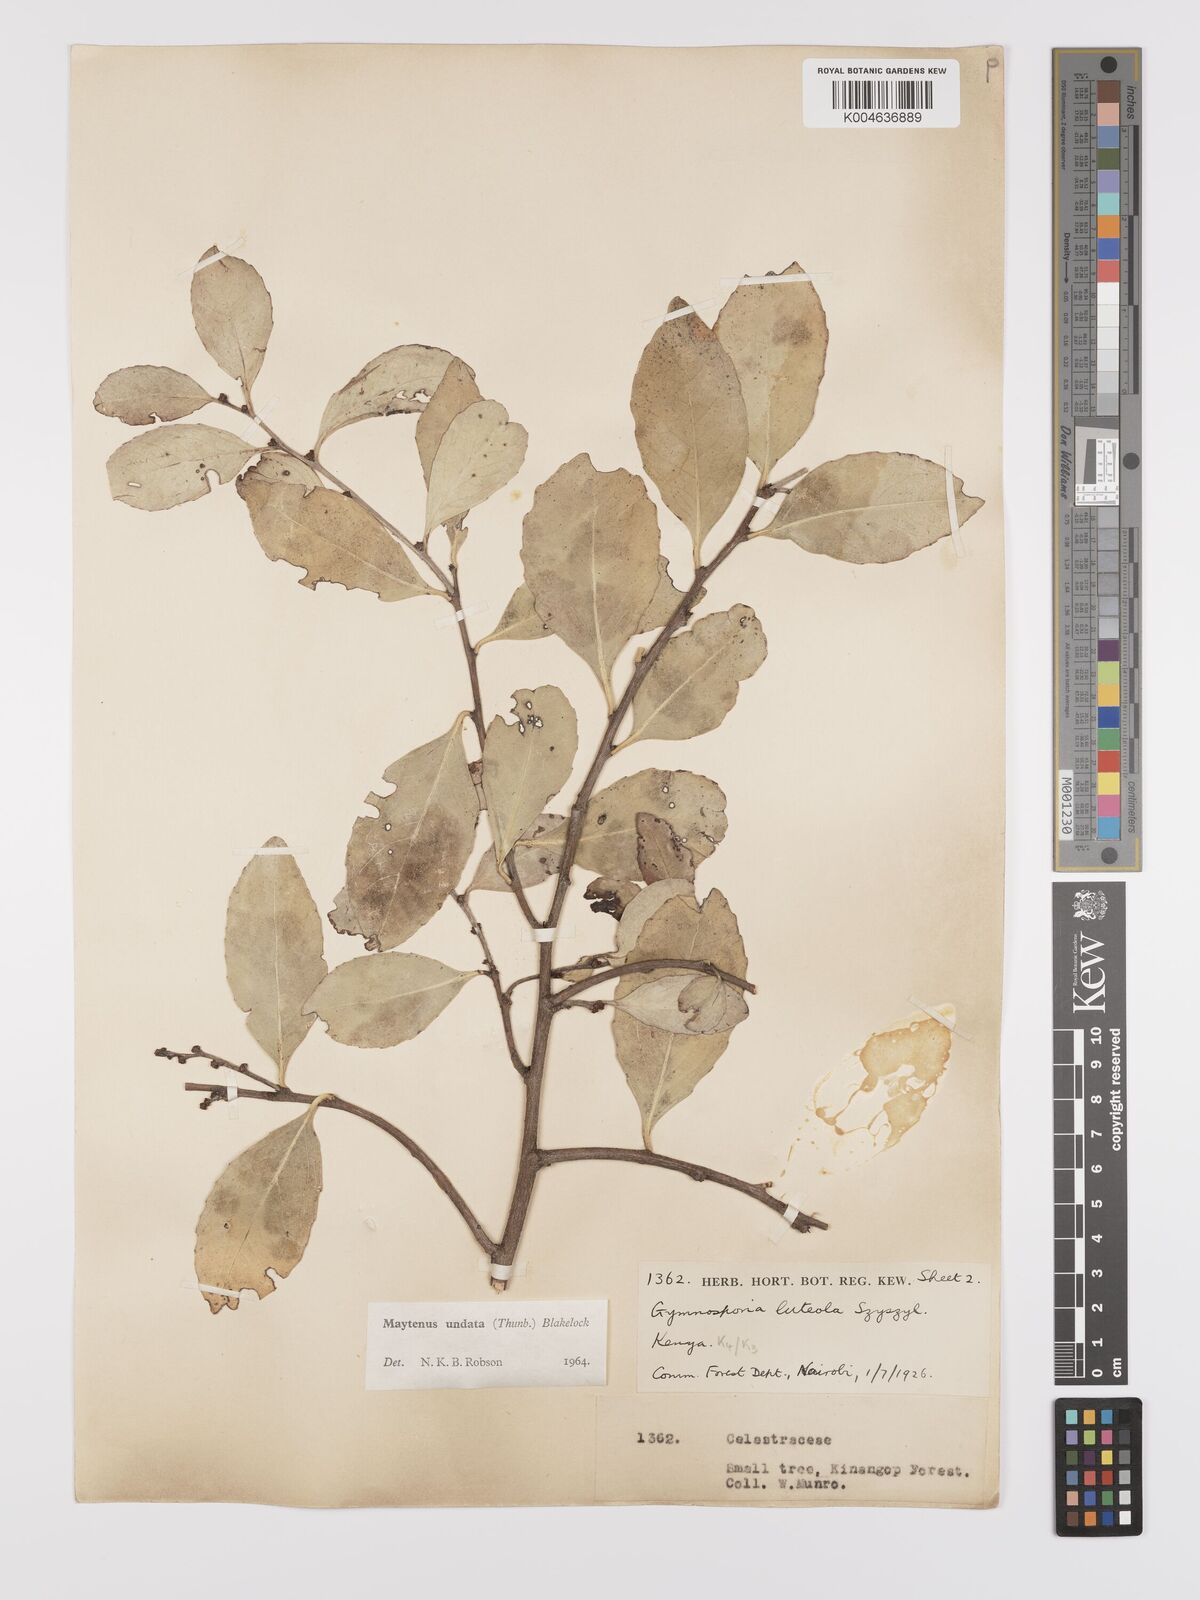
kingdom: Plantae
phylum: Tracheophyta
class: Magnoliopsida
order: Celastrales
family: Celastraceae
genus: Gymnosporia
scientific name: Gymnosporia undata
